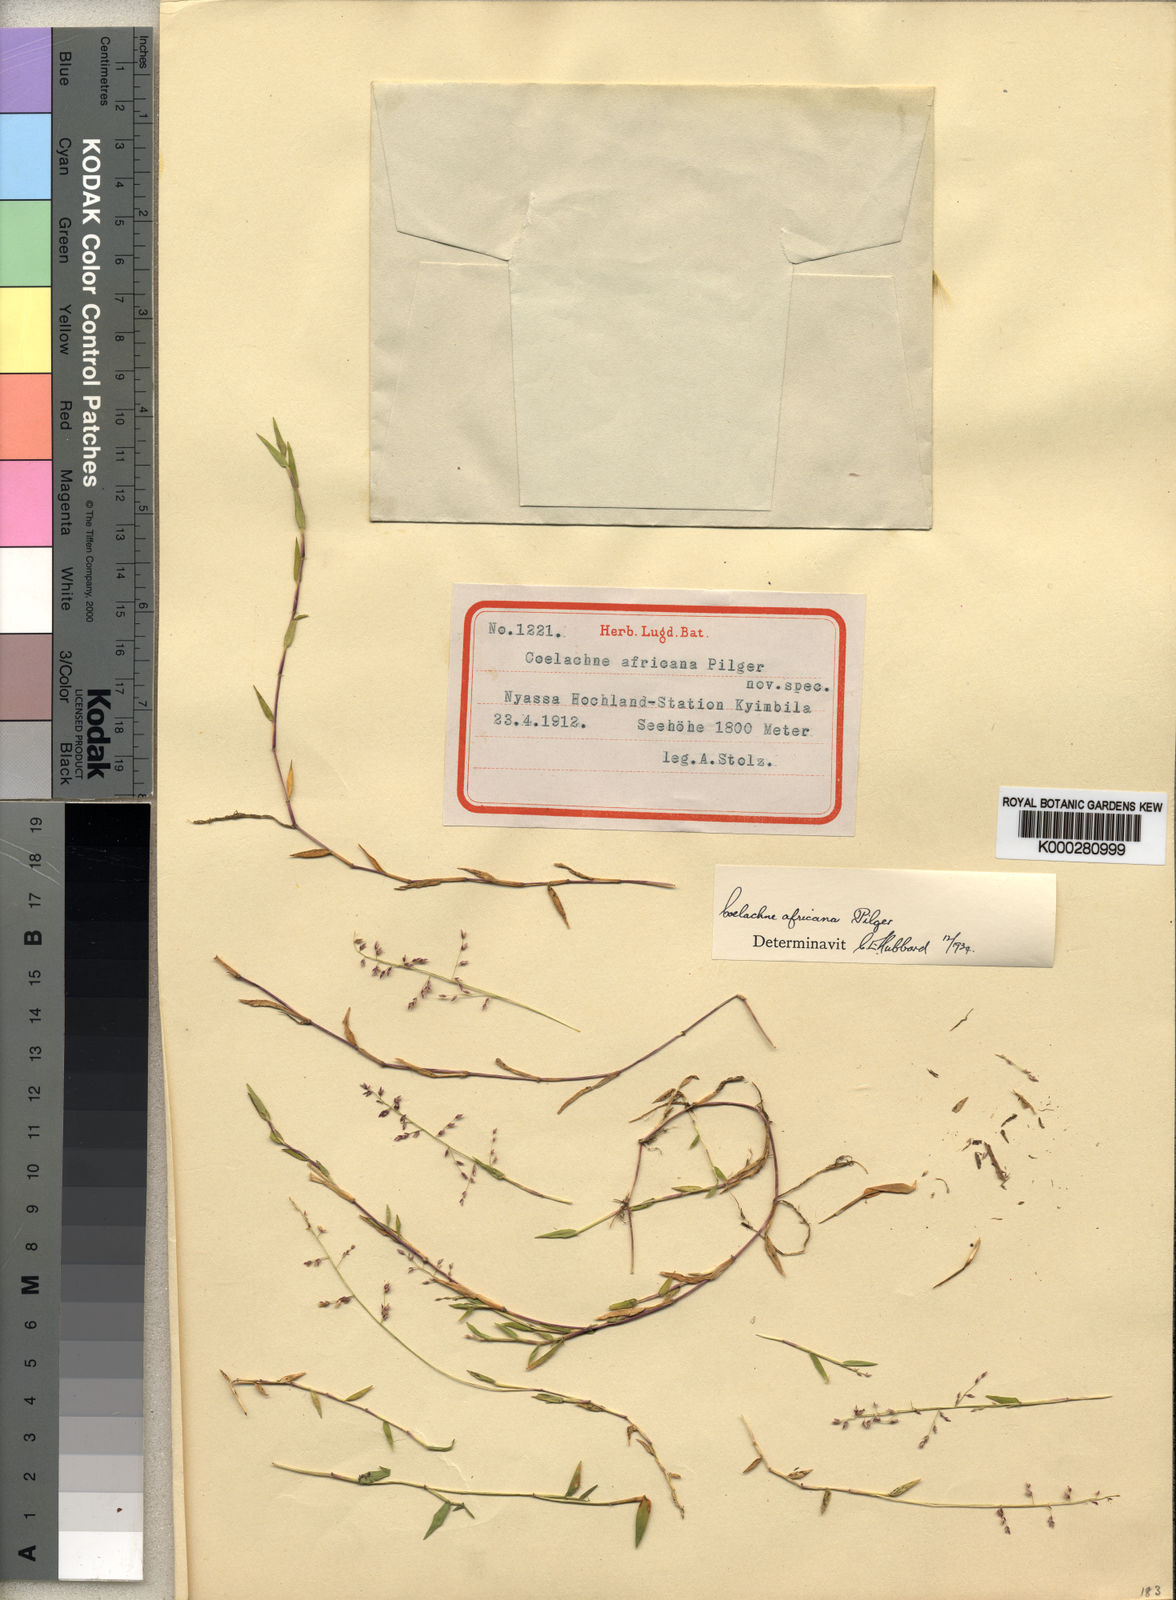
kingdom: Plantae
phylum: Tracheophyta
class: Liliopsida
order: Poales
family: Poaceae
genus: Coelachne
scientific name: Coelachne africana
